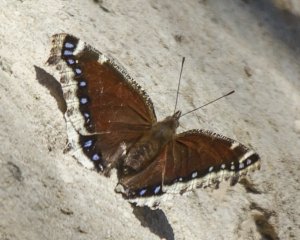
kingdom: Animalia
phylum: Arthropoda
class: Insecta
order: Lepidoptera
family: Nymphalidae
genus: Nymphalis
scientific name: Nymphalis antiopa
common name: Mourning Cloak
